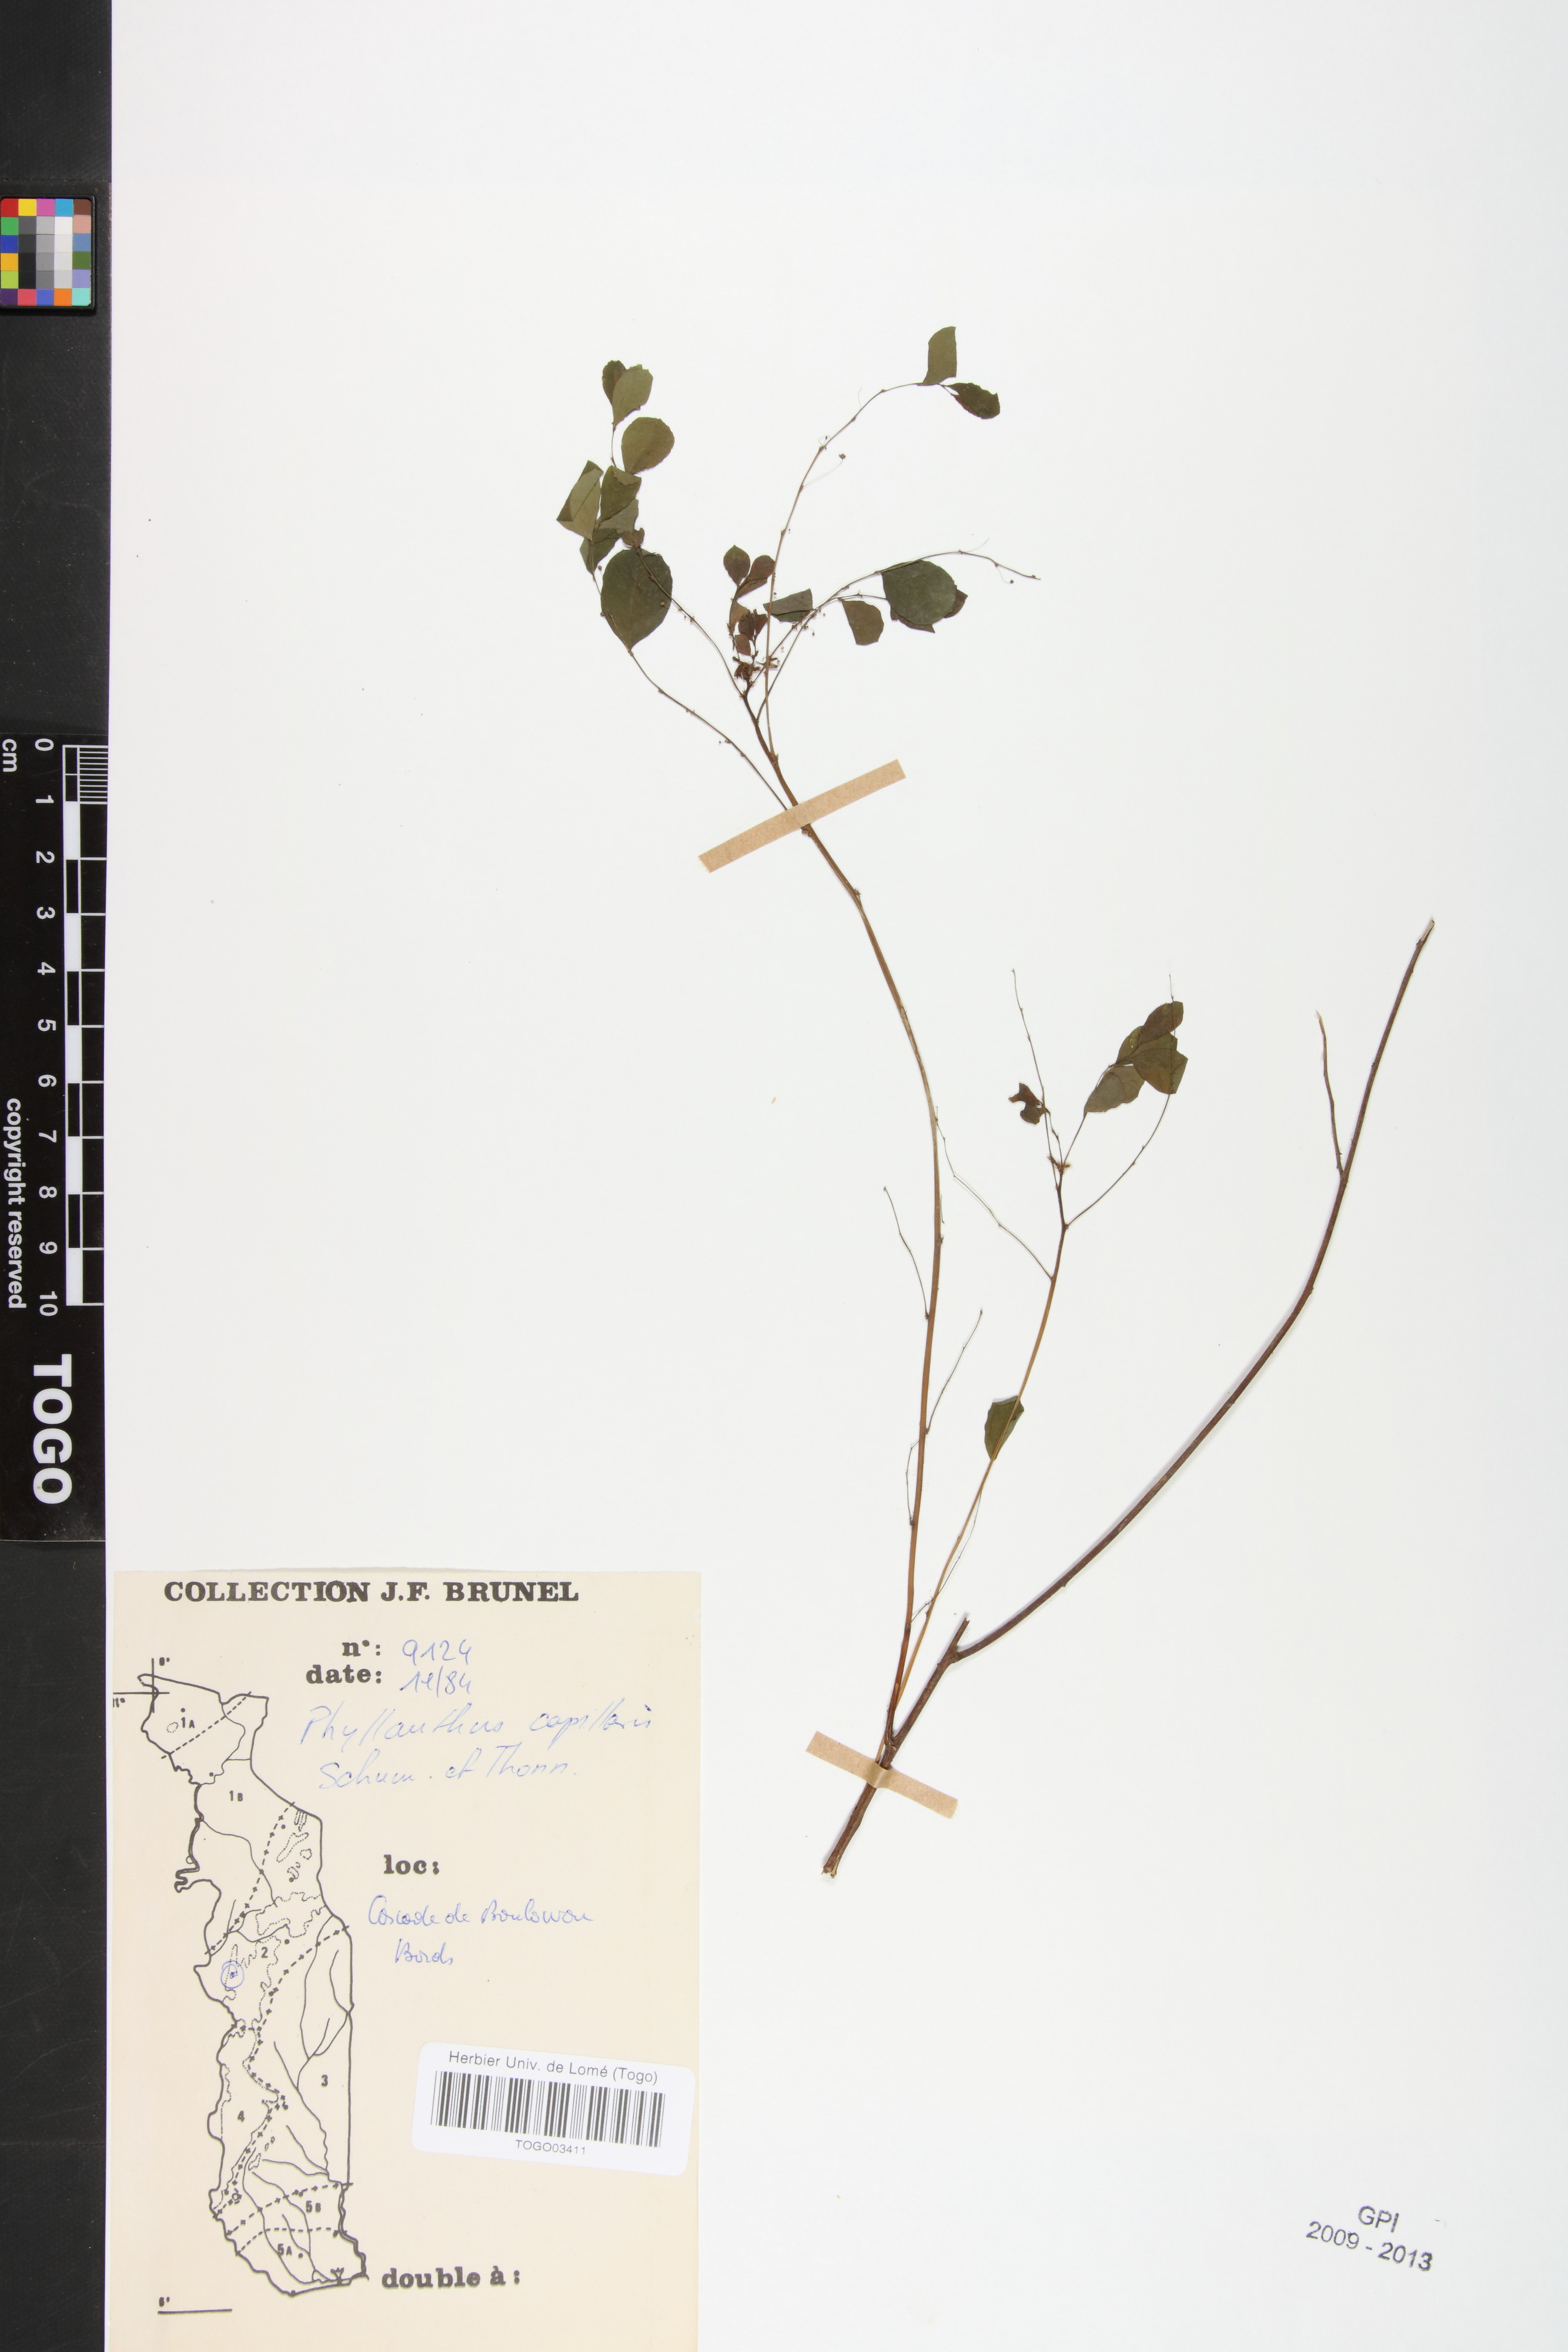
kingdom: Plantae
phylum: Tracheophyta
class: Magnoliopsida
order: Malpighiales
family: Phyllanthaceae
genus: Phyllanthus
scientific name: Phyllanthus nummulariifolius
